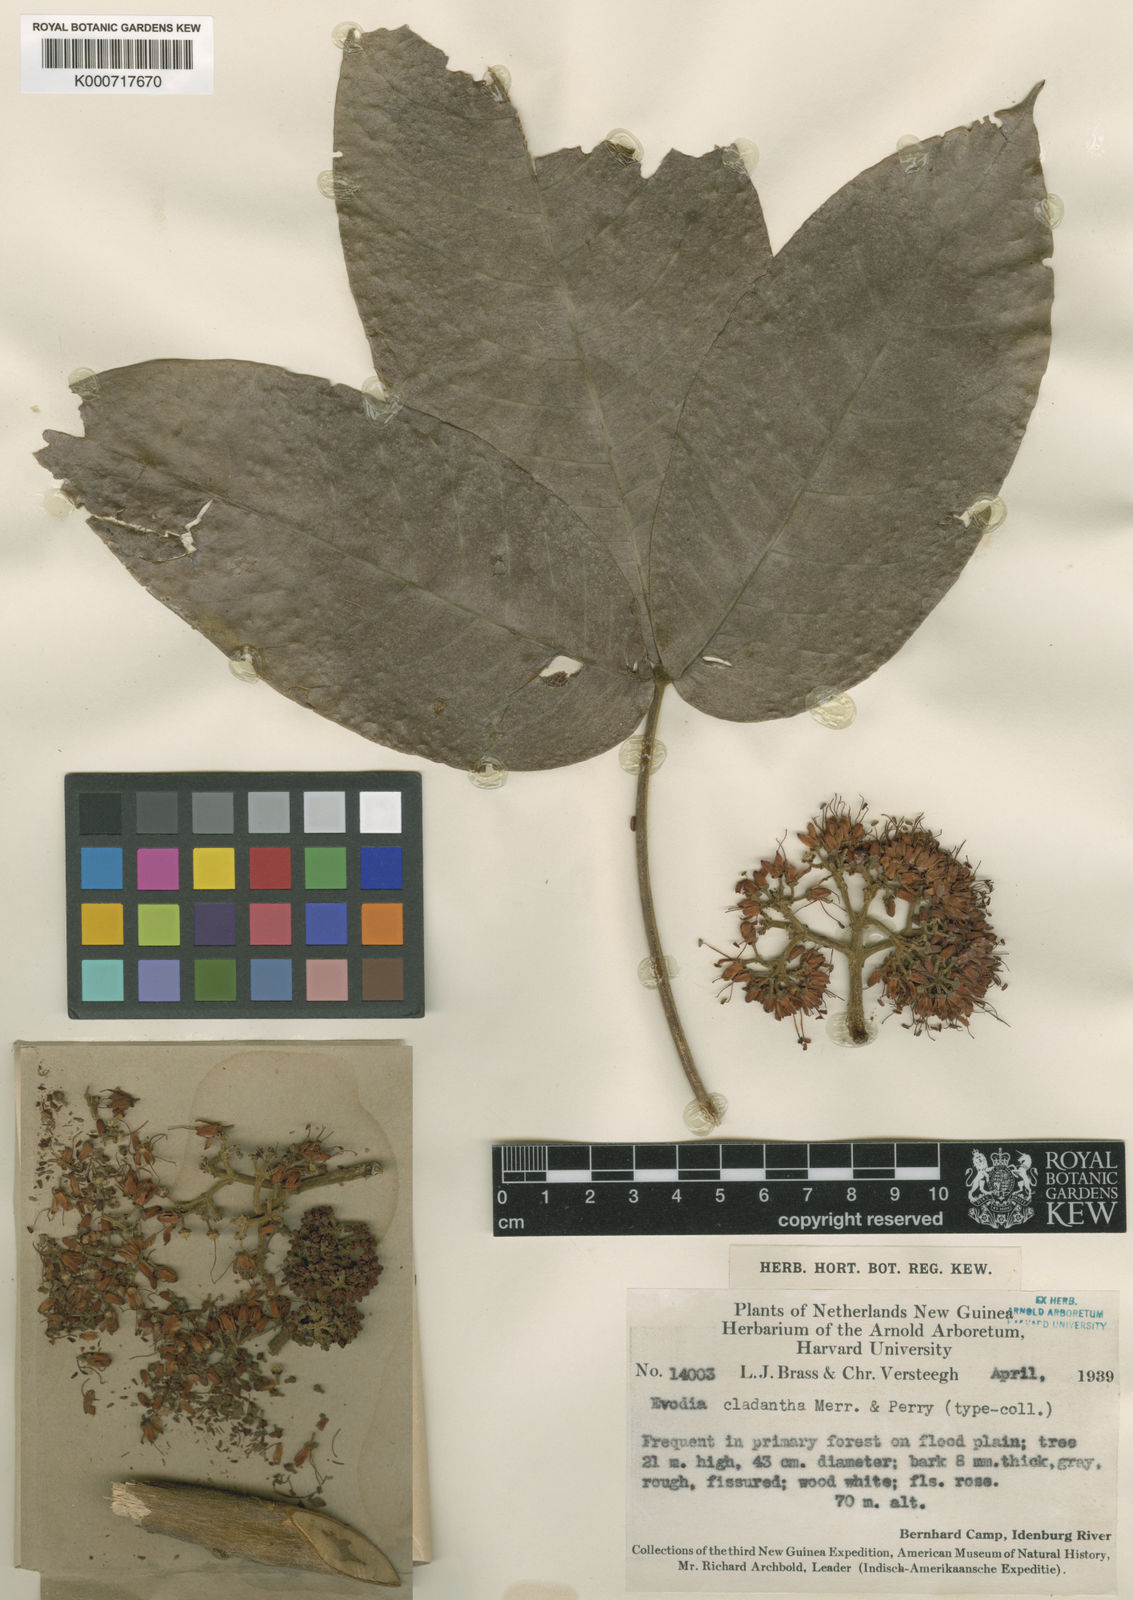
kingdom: Plantae
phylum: Tracheophyta
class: Magnoliopsida
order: Sapindales
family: Rutaceae
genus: Melicope
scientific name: Melicope elleryana
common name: Pink euodia
